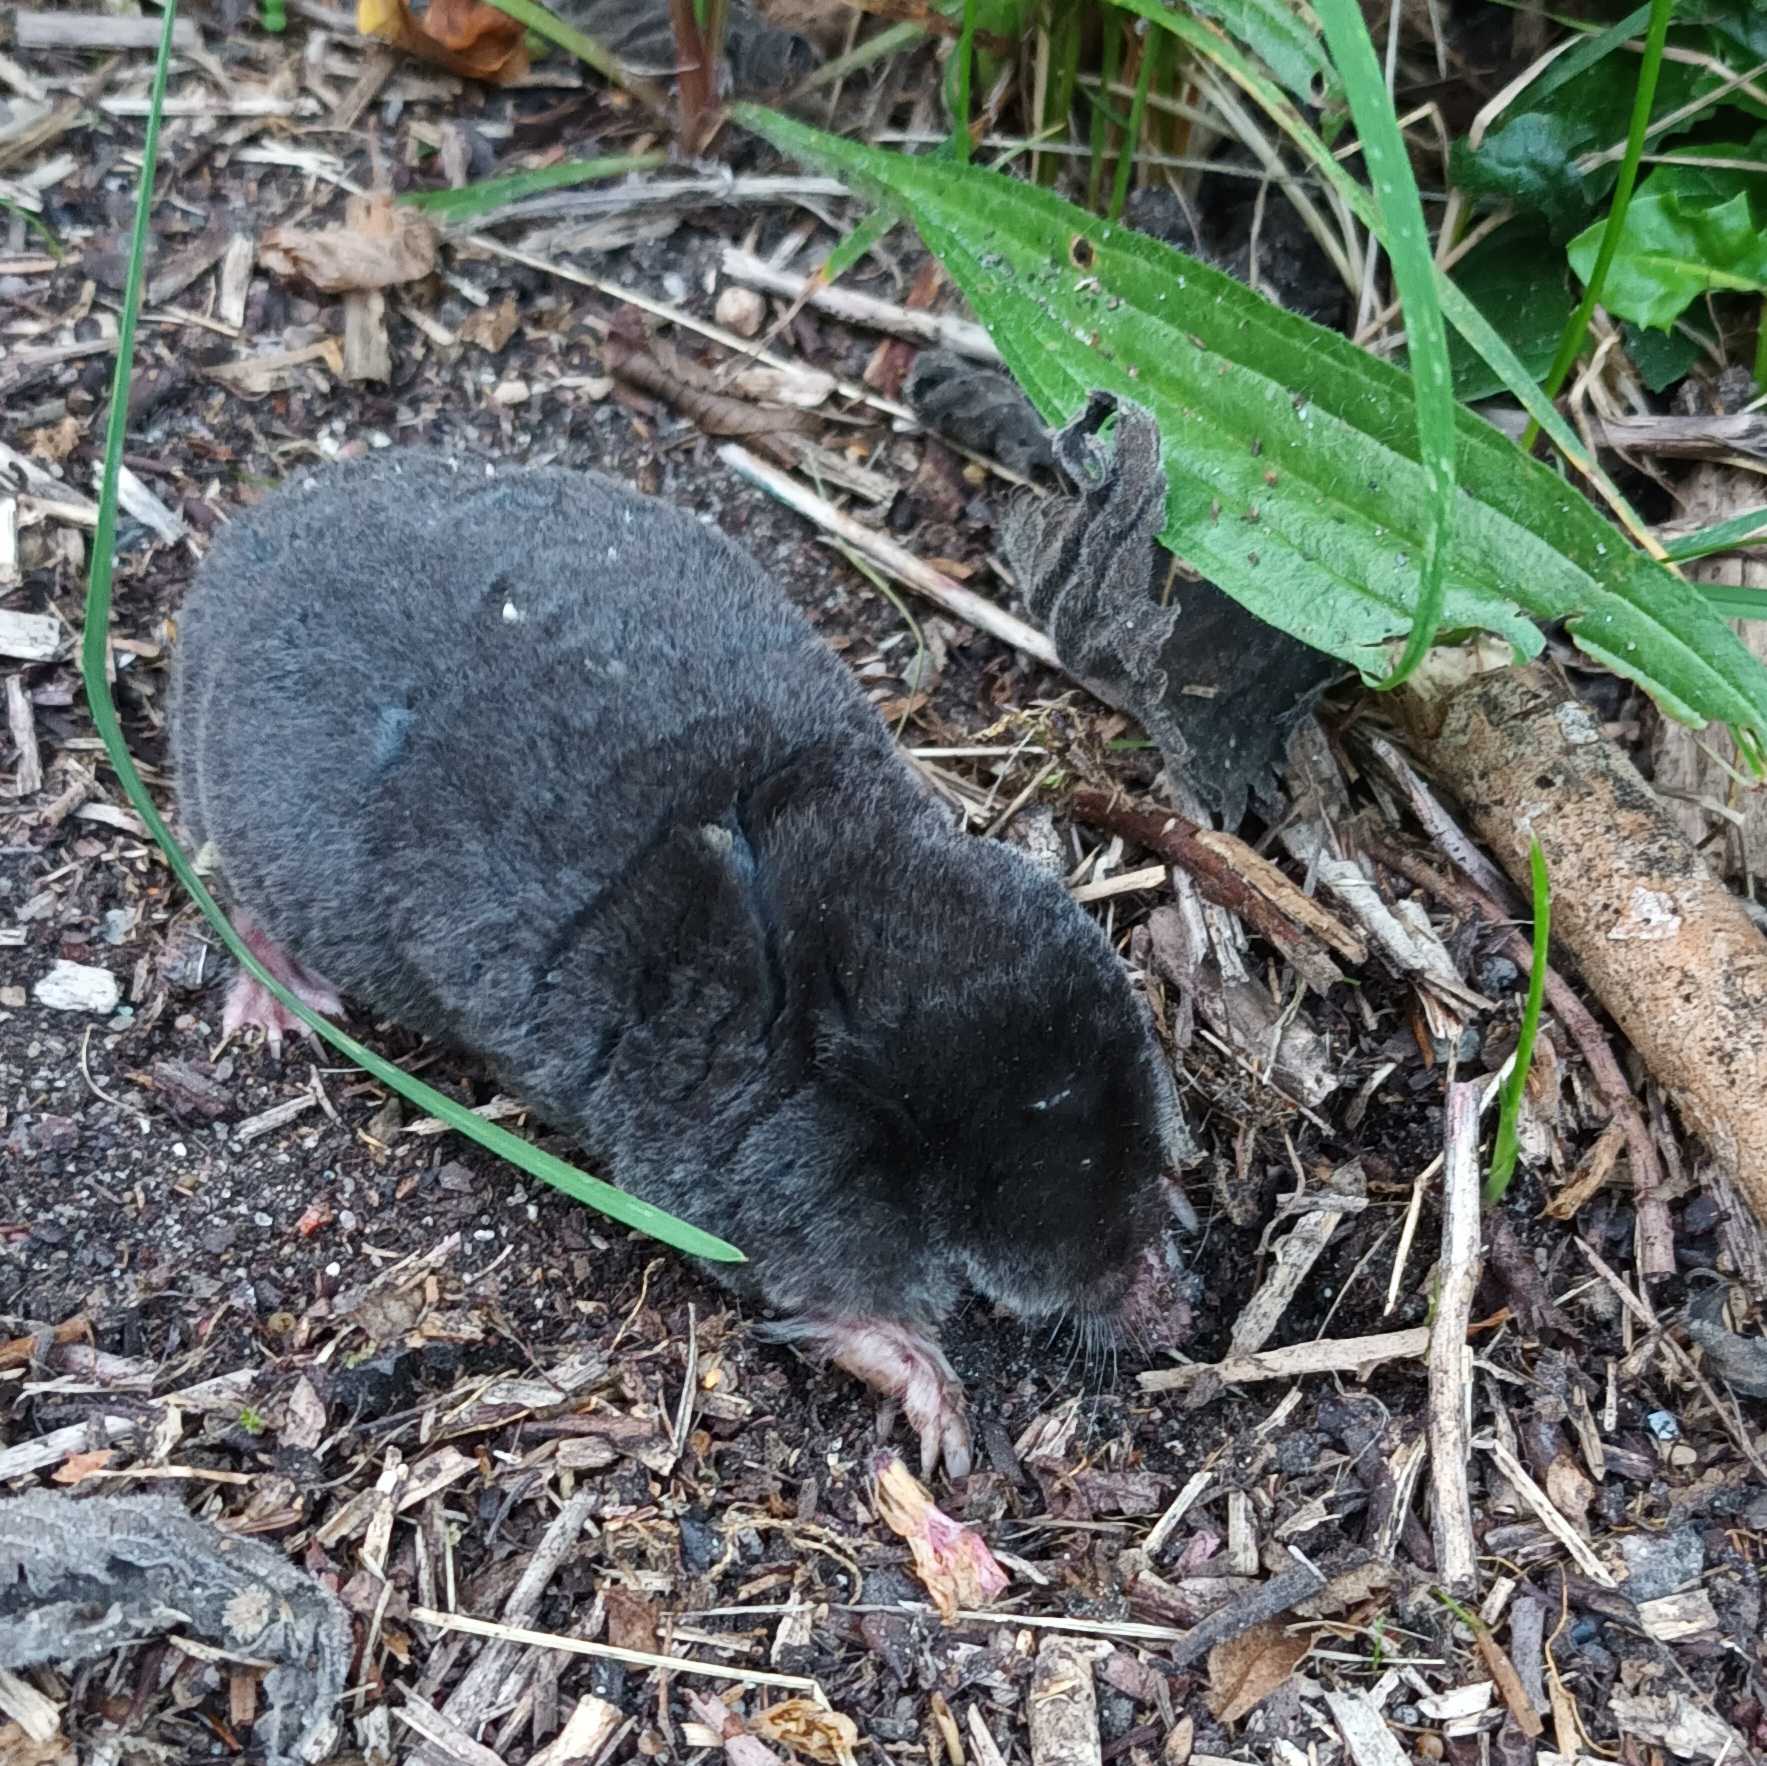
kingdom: Animalia
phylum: Chordata
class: Mammalia
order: Soricomorpha
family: Talpidae
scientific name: Talpidae
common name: Muldvarpe
